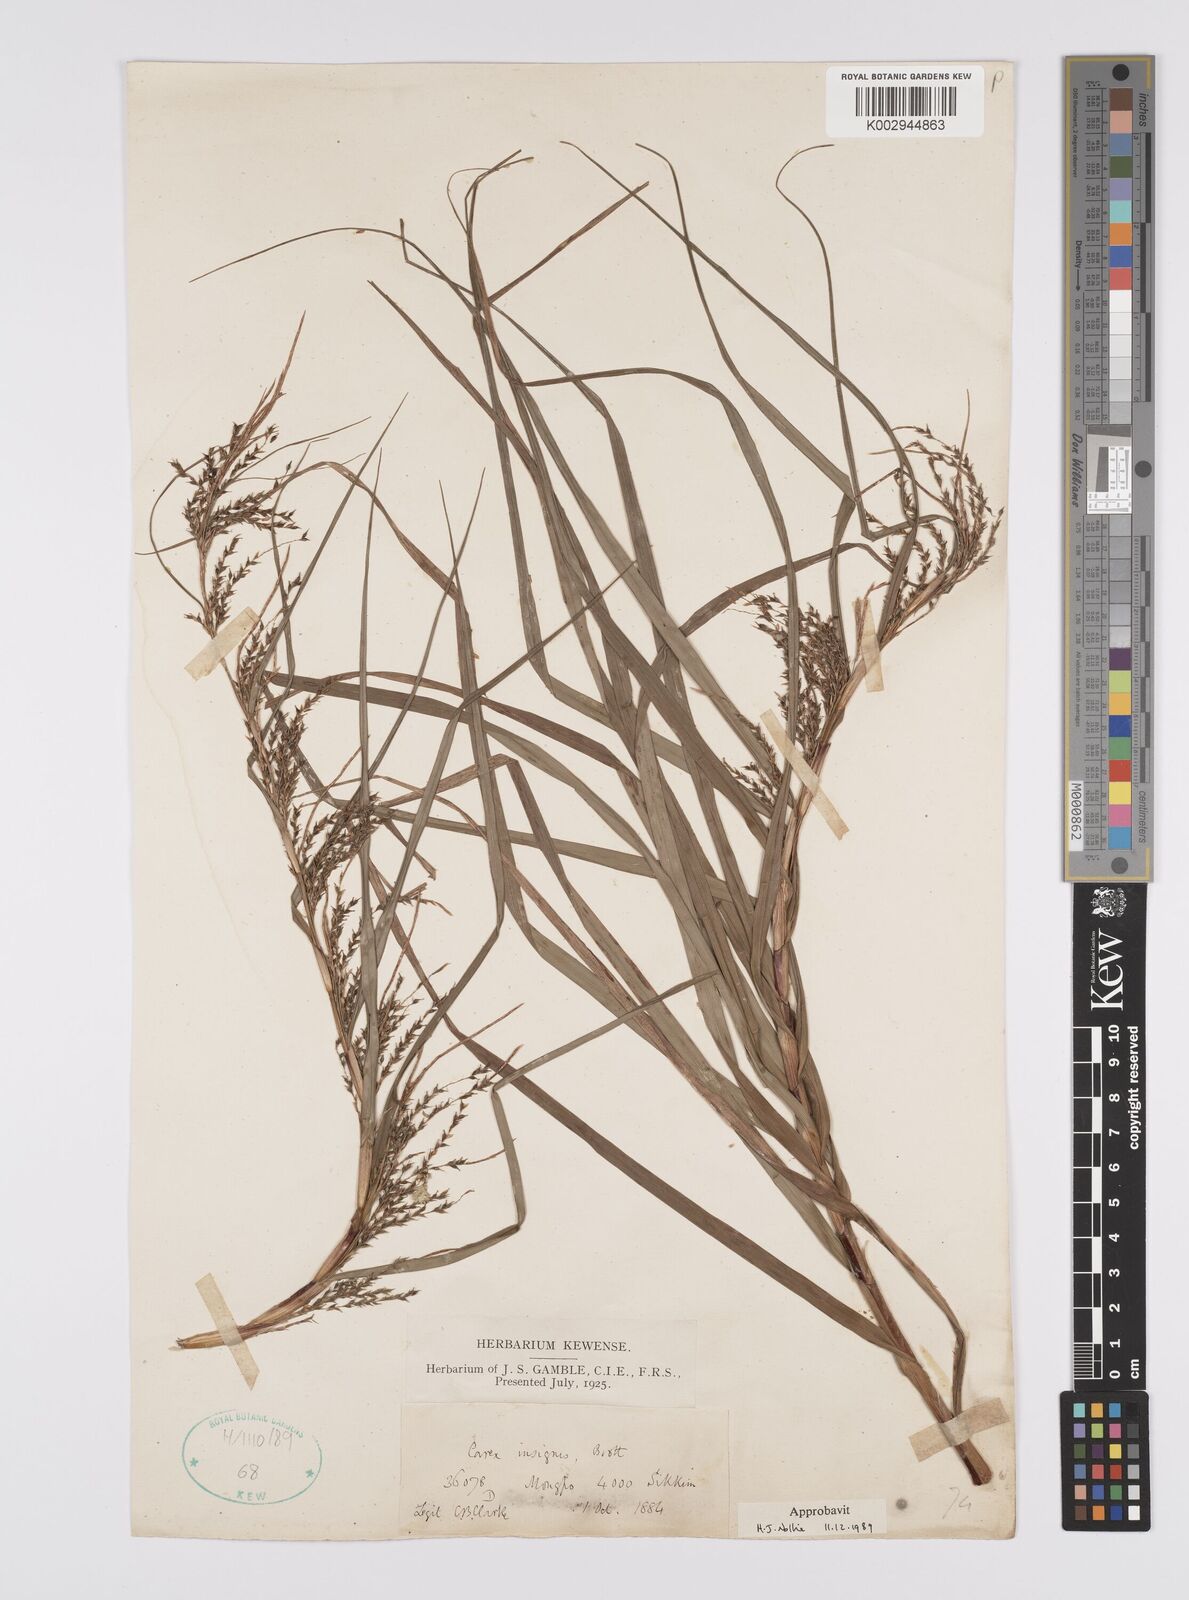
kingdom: Plantae
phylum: Tracheophyta
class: Liliopsida
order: Poales
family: Cyperaceae
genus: Carex
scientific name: Carex insignis
